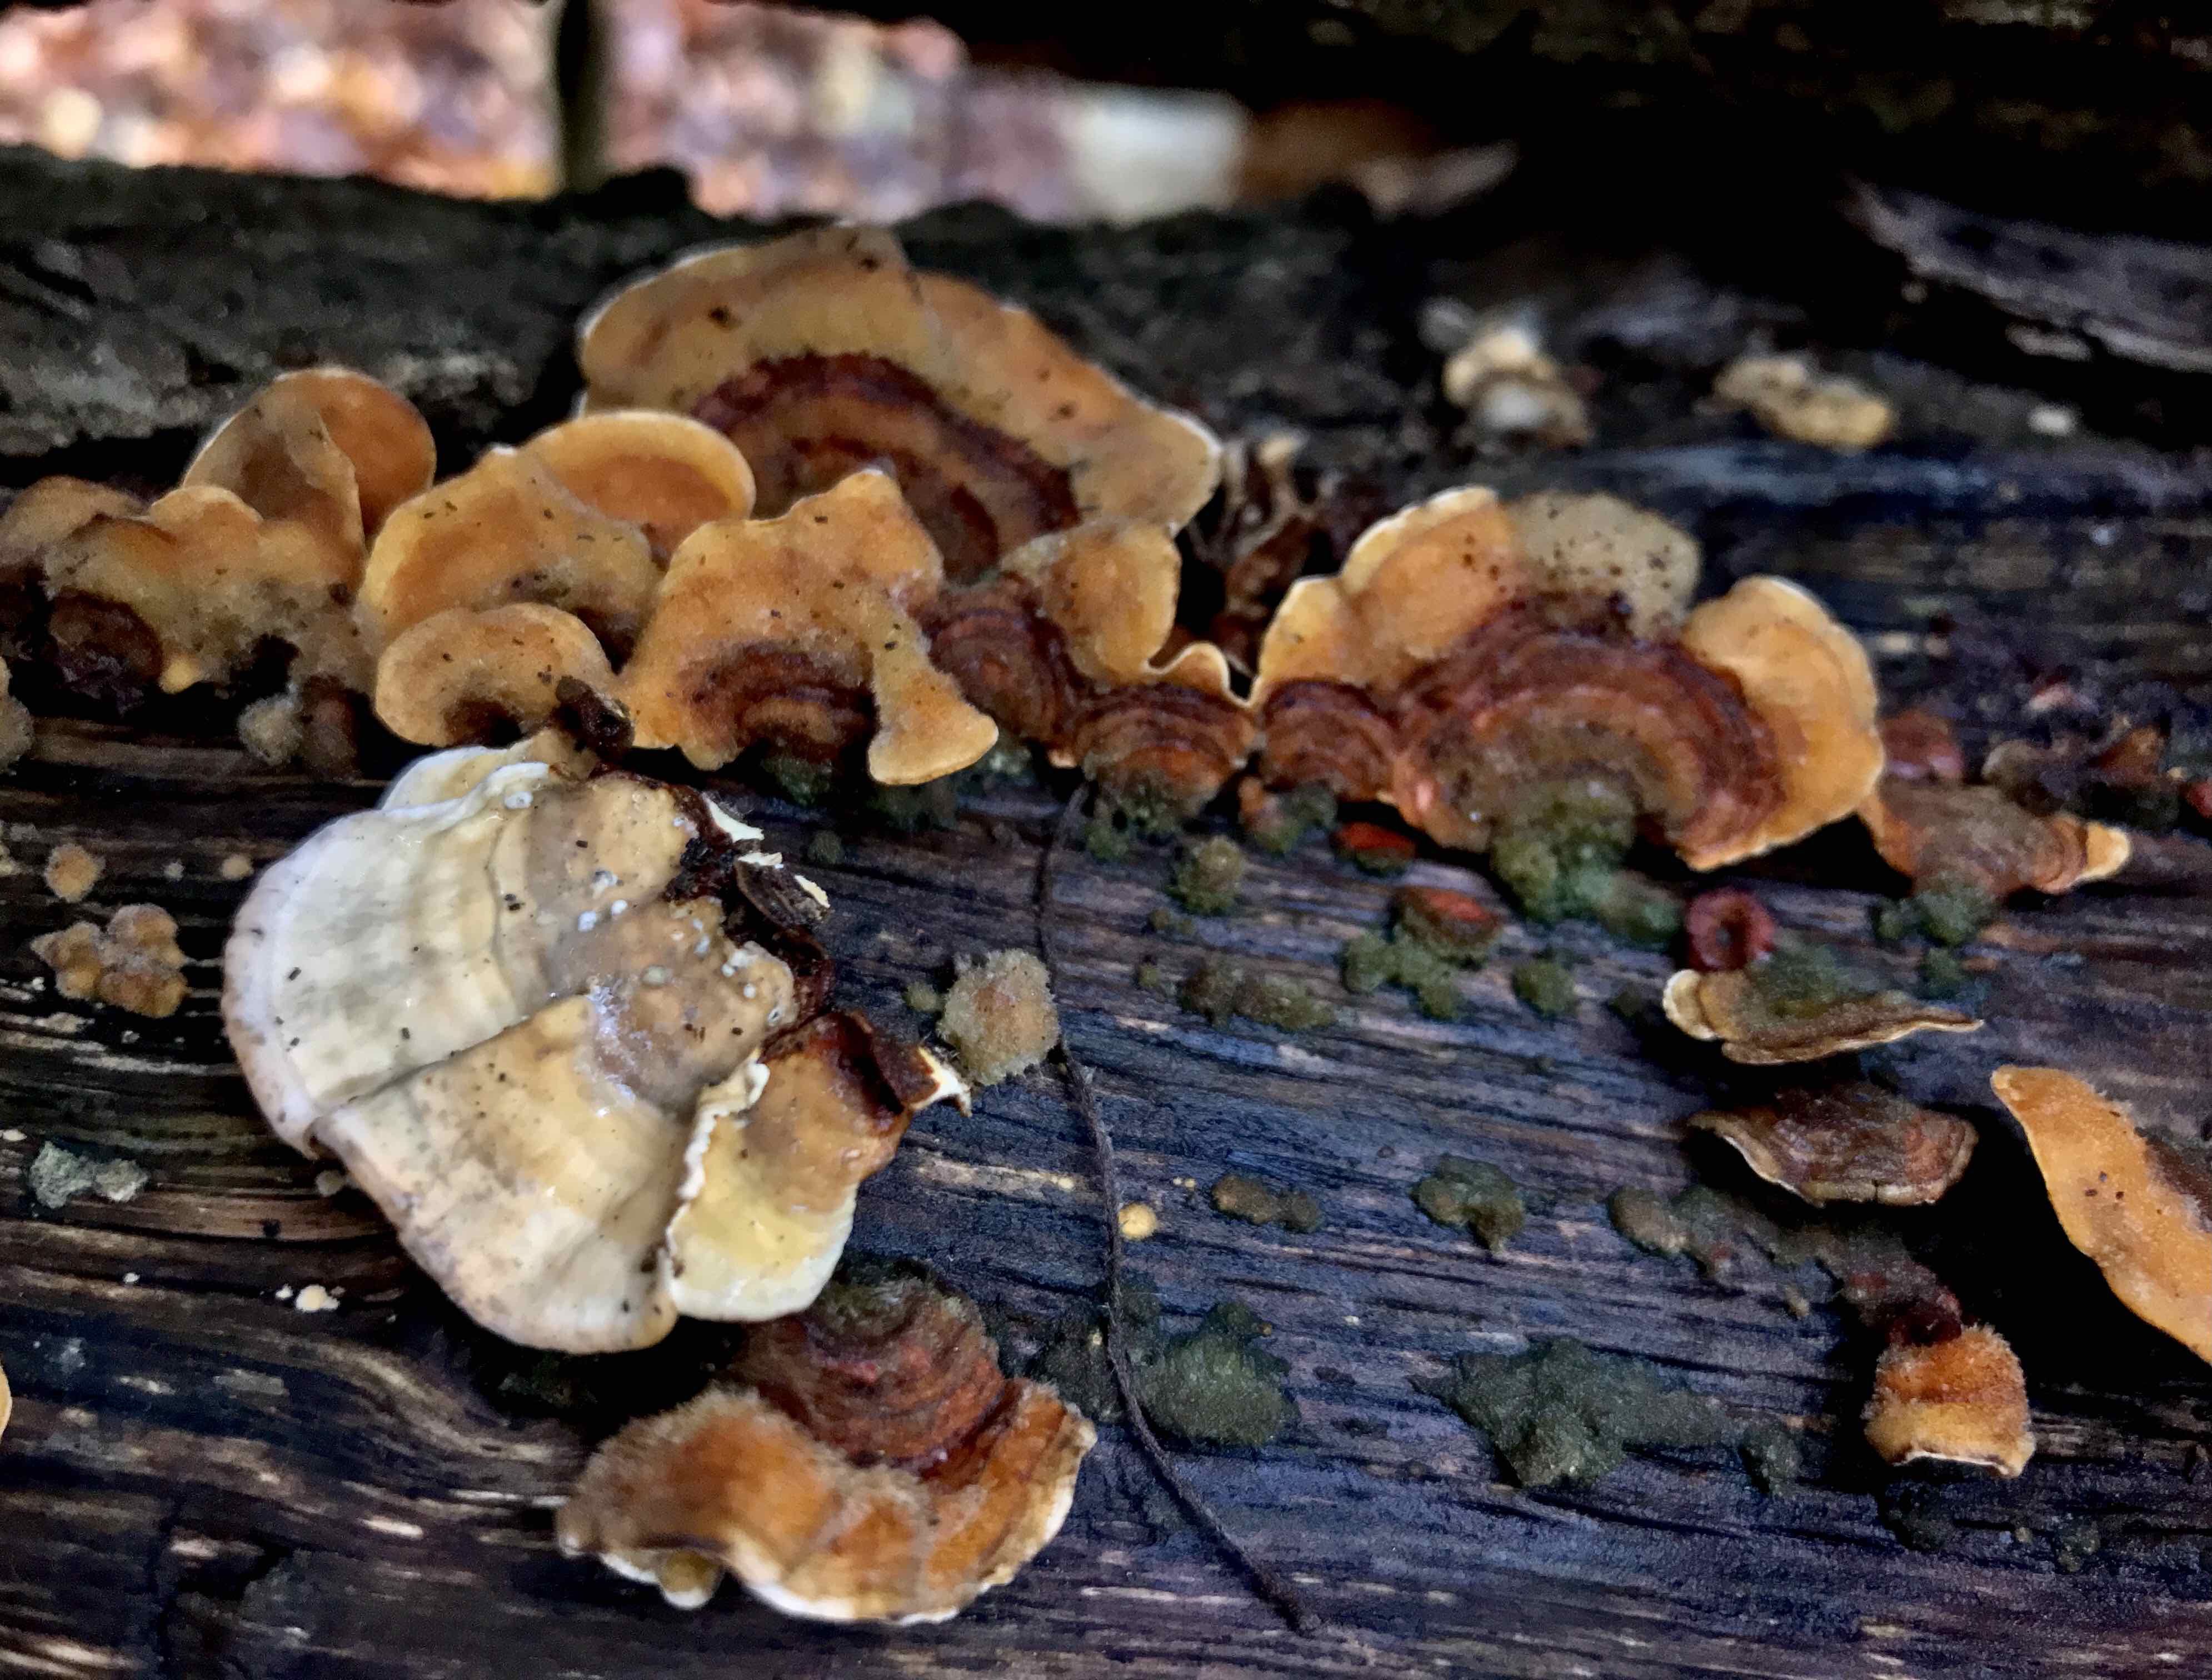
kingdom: Fungi
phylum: Basidiomycota
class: Agaricomycetes
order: Russulales
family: Stereaceae
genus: Stereum
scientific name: Stereum subtomentosum
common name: smuk lædersvamp
